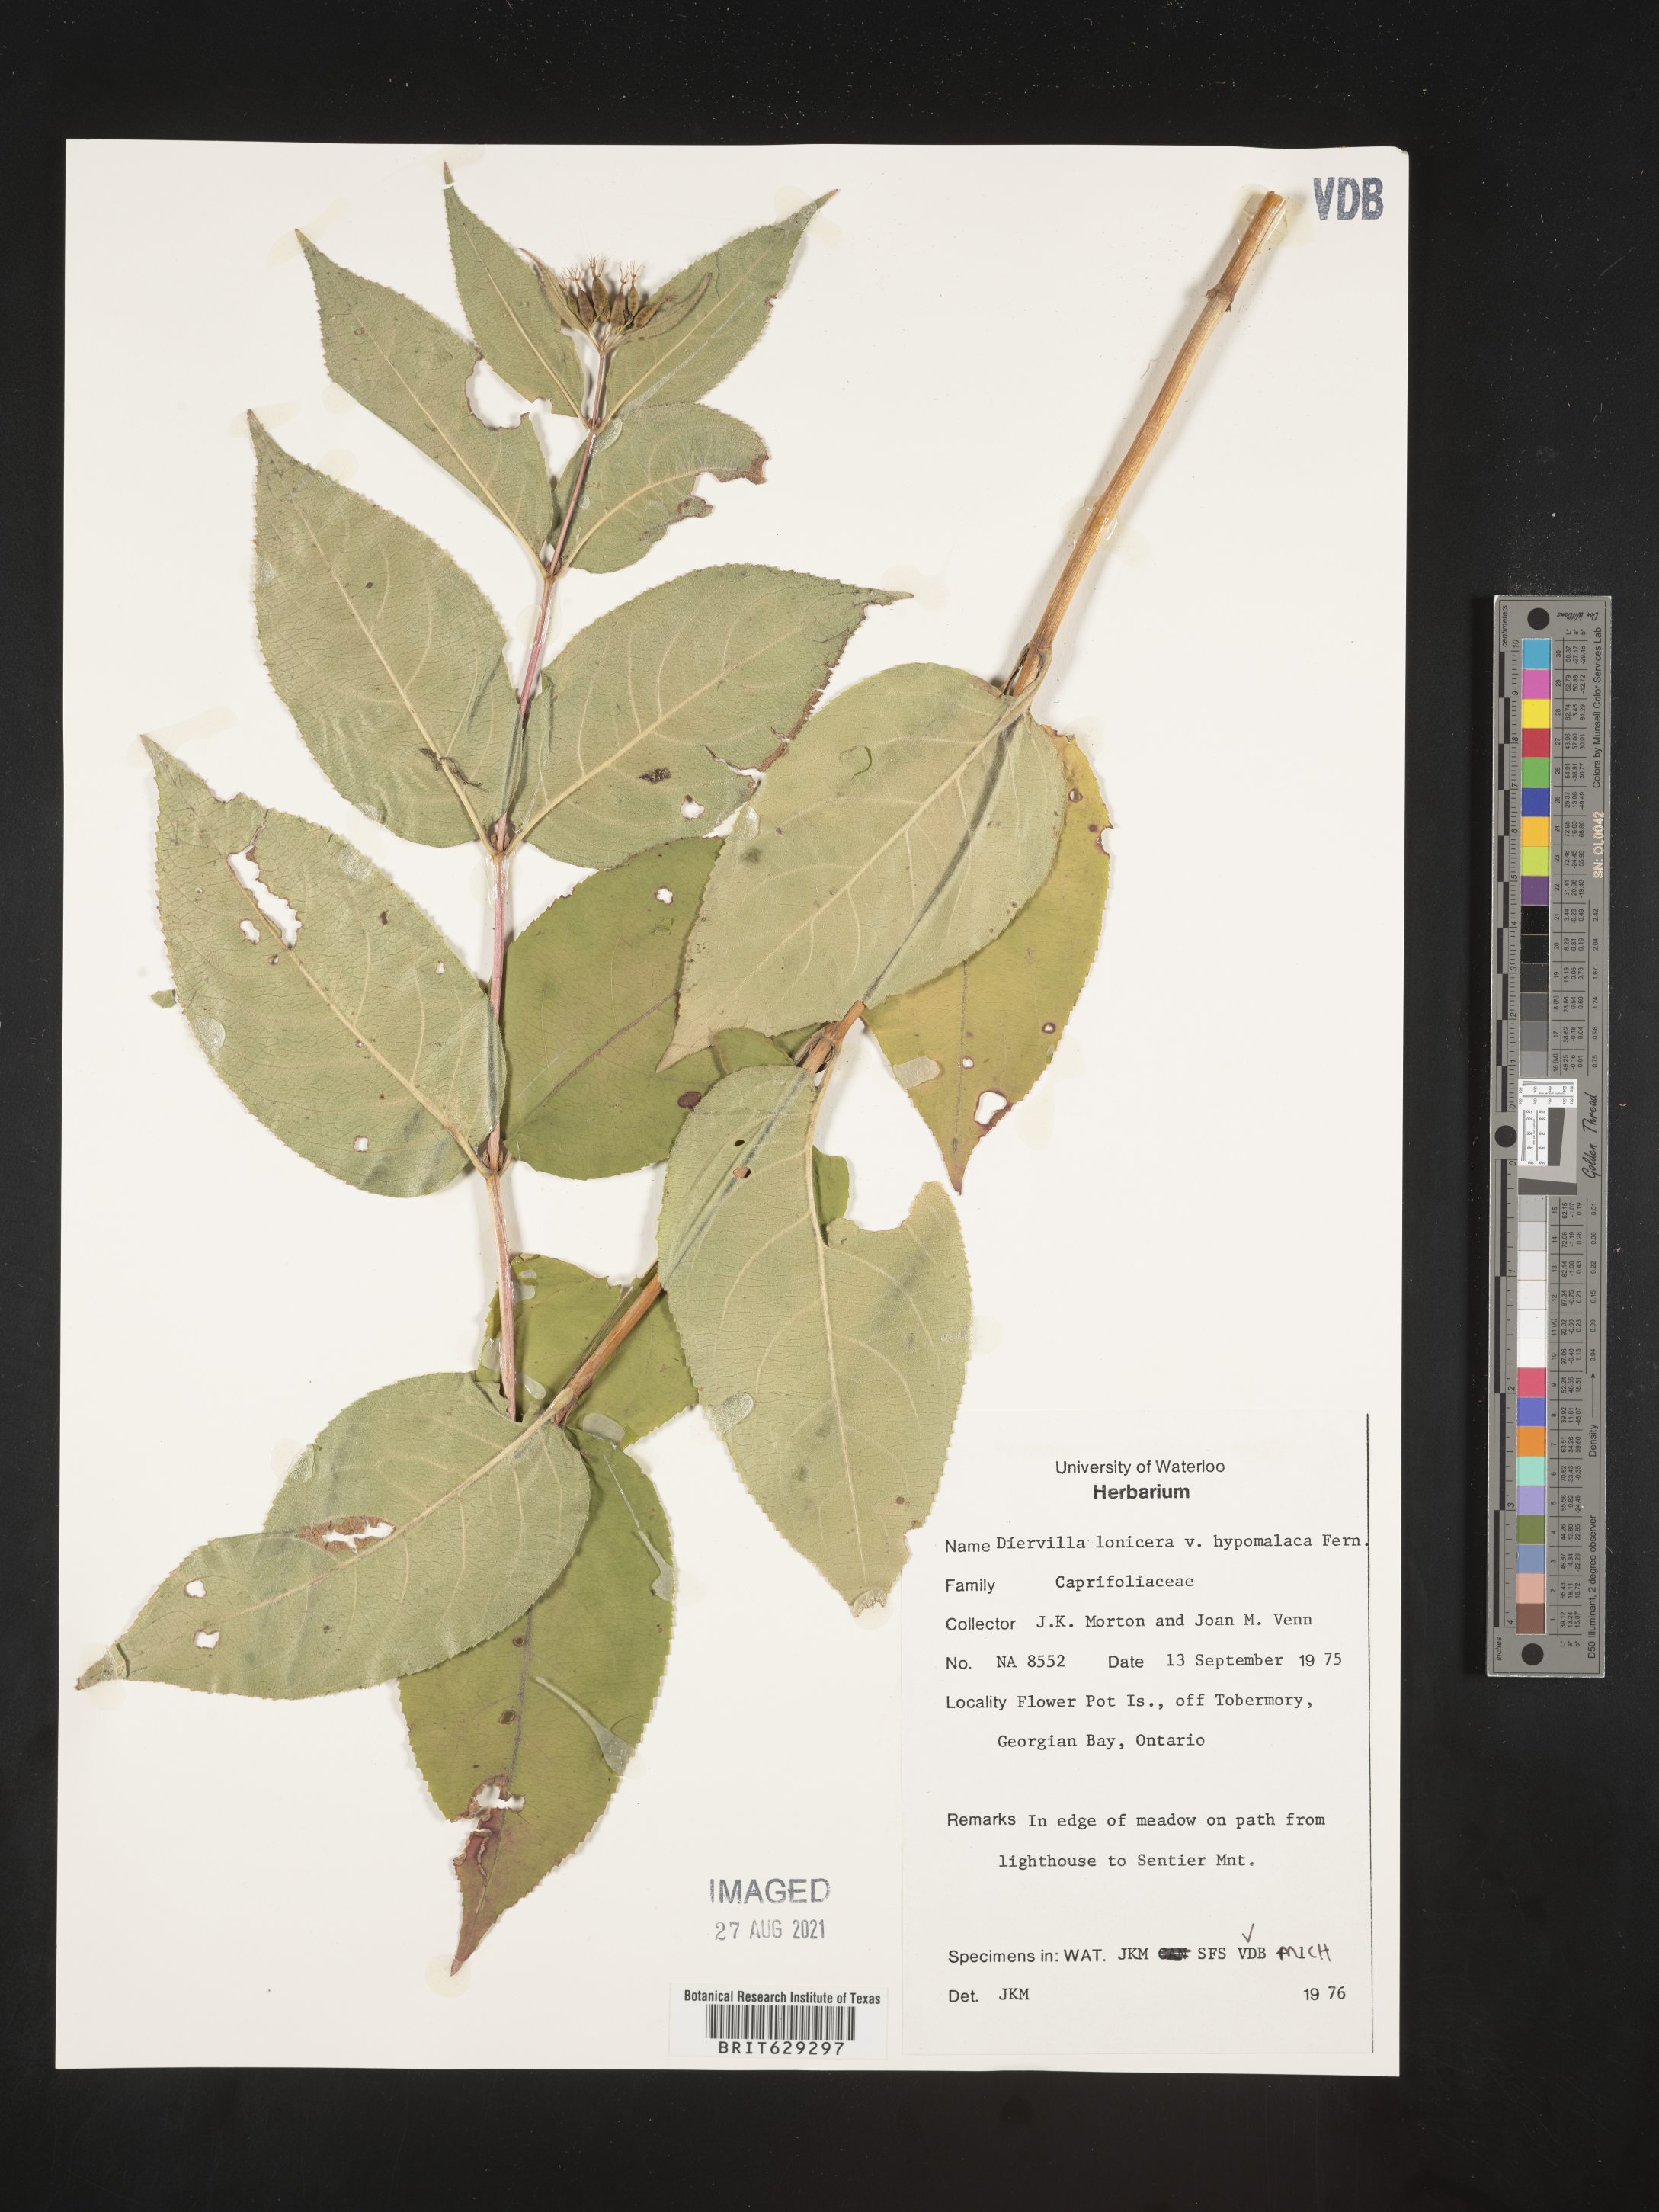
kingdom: Plantae
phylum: Tracheophyta
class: Magnoliopsida
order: Dipsacales
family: Caprifoliaceae
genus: Diervilla
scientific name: Diervilla lonicera
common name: Bush-honeysuckle
